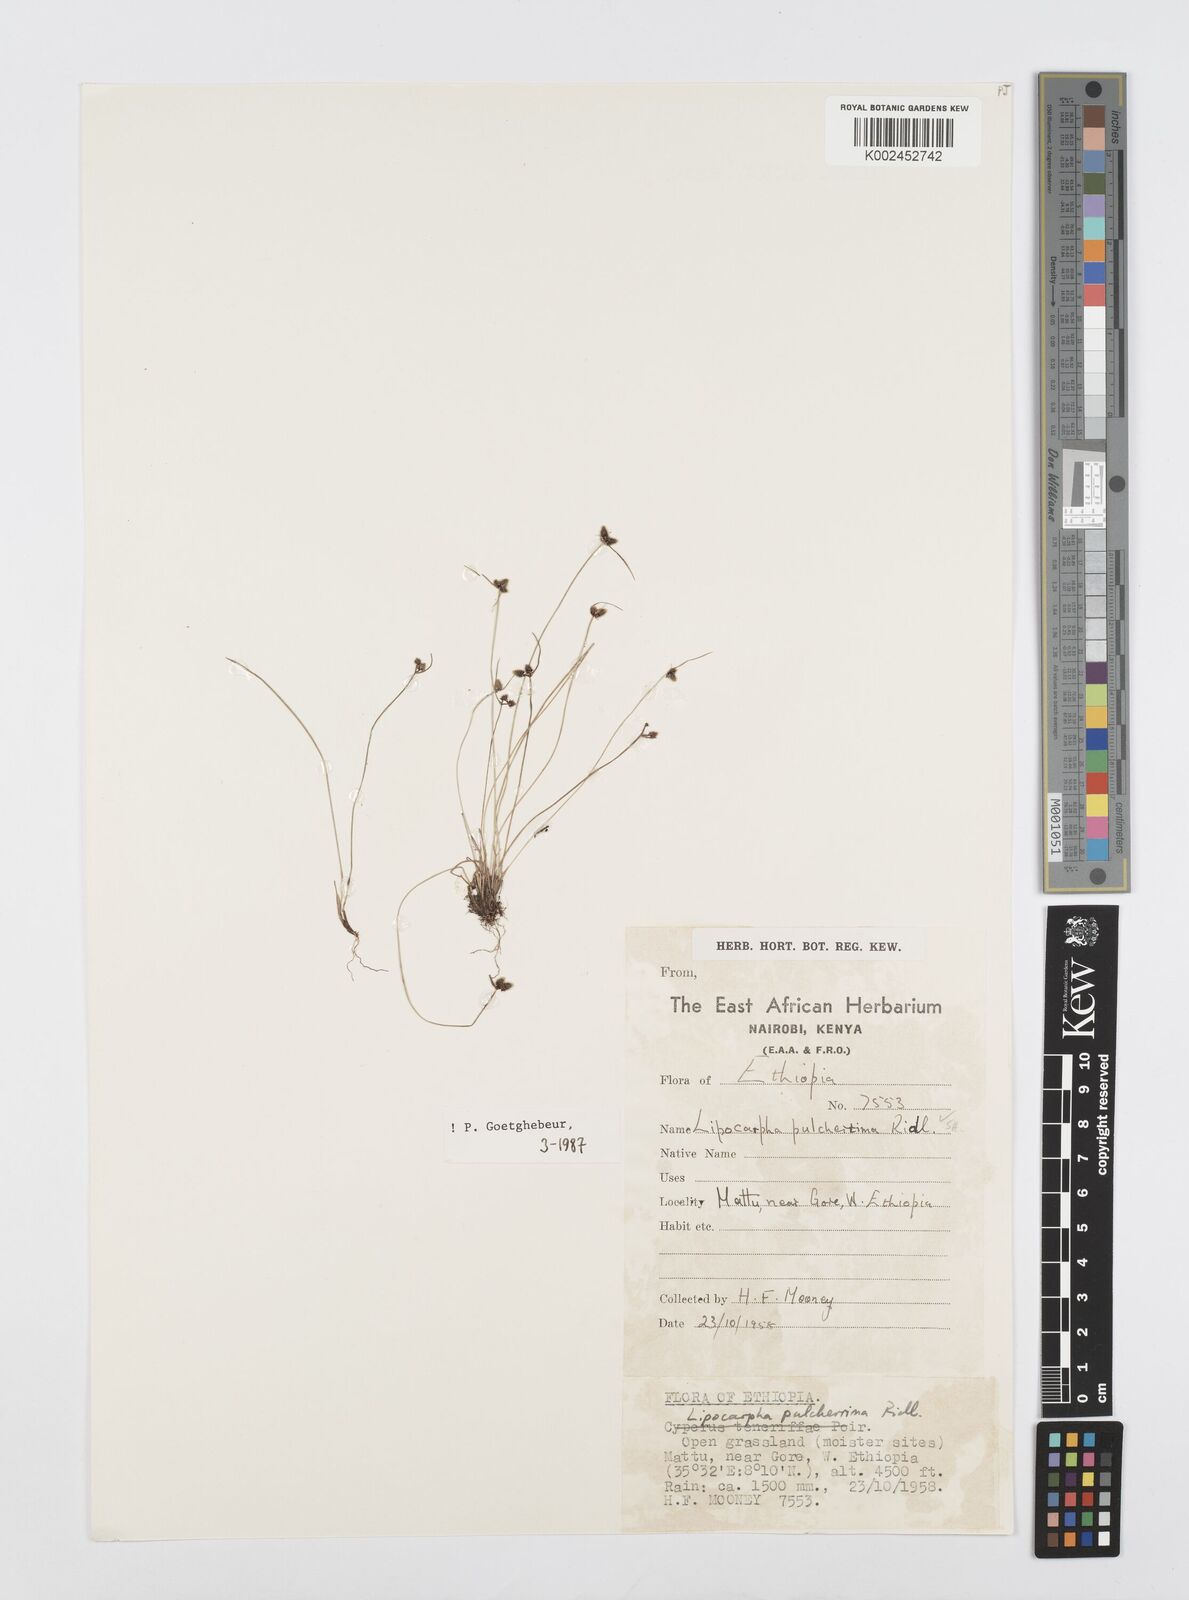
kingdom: Plantae
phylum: Tracheophyta
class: Liliopsida
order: Poales
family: Cyperaceae
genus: Cyperus
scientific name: Cyperus nanus
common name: Indian flatsedge
